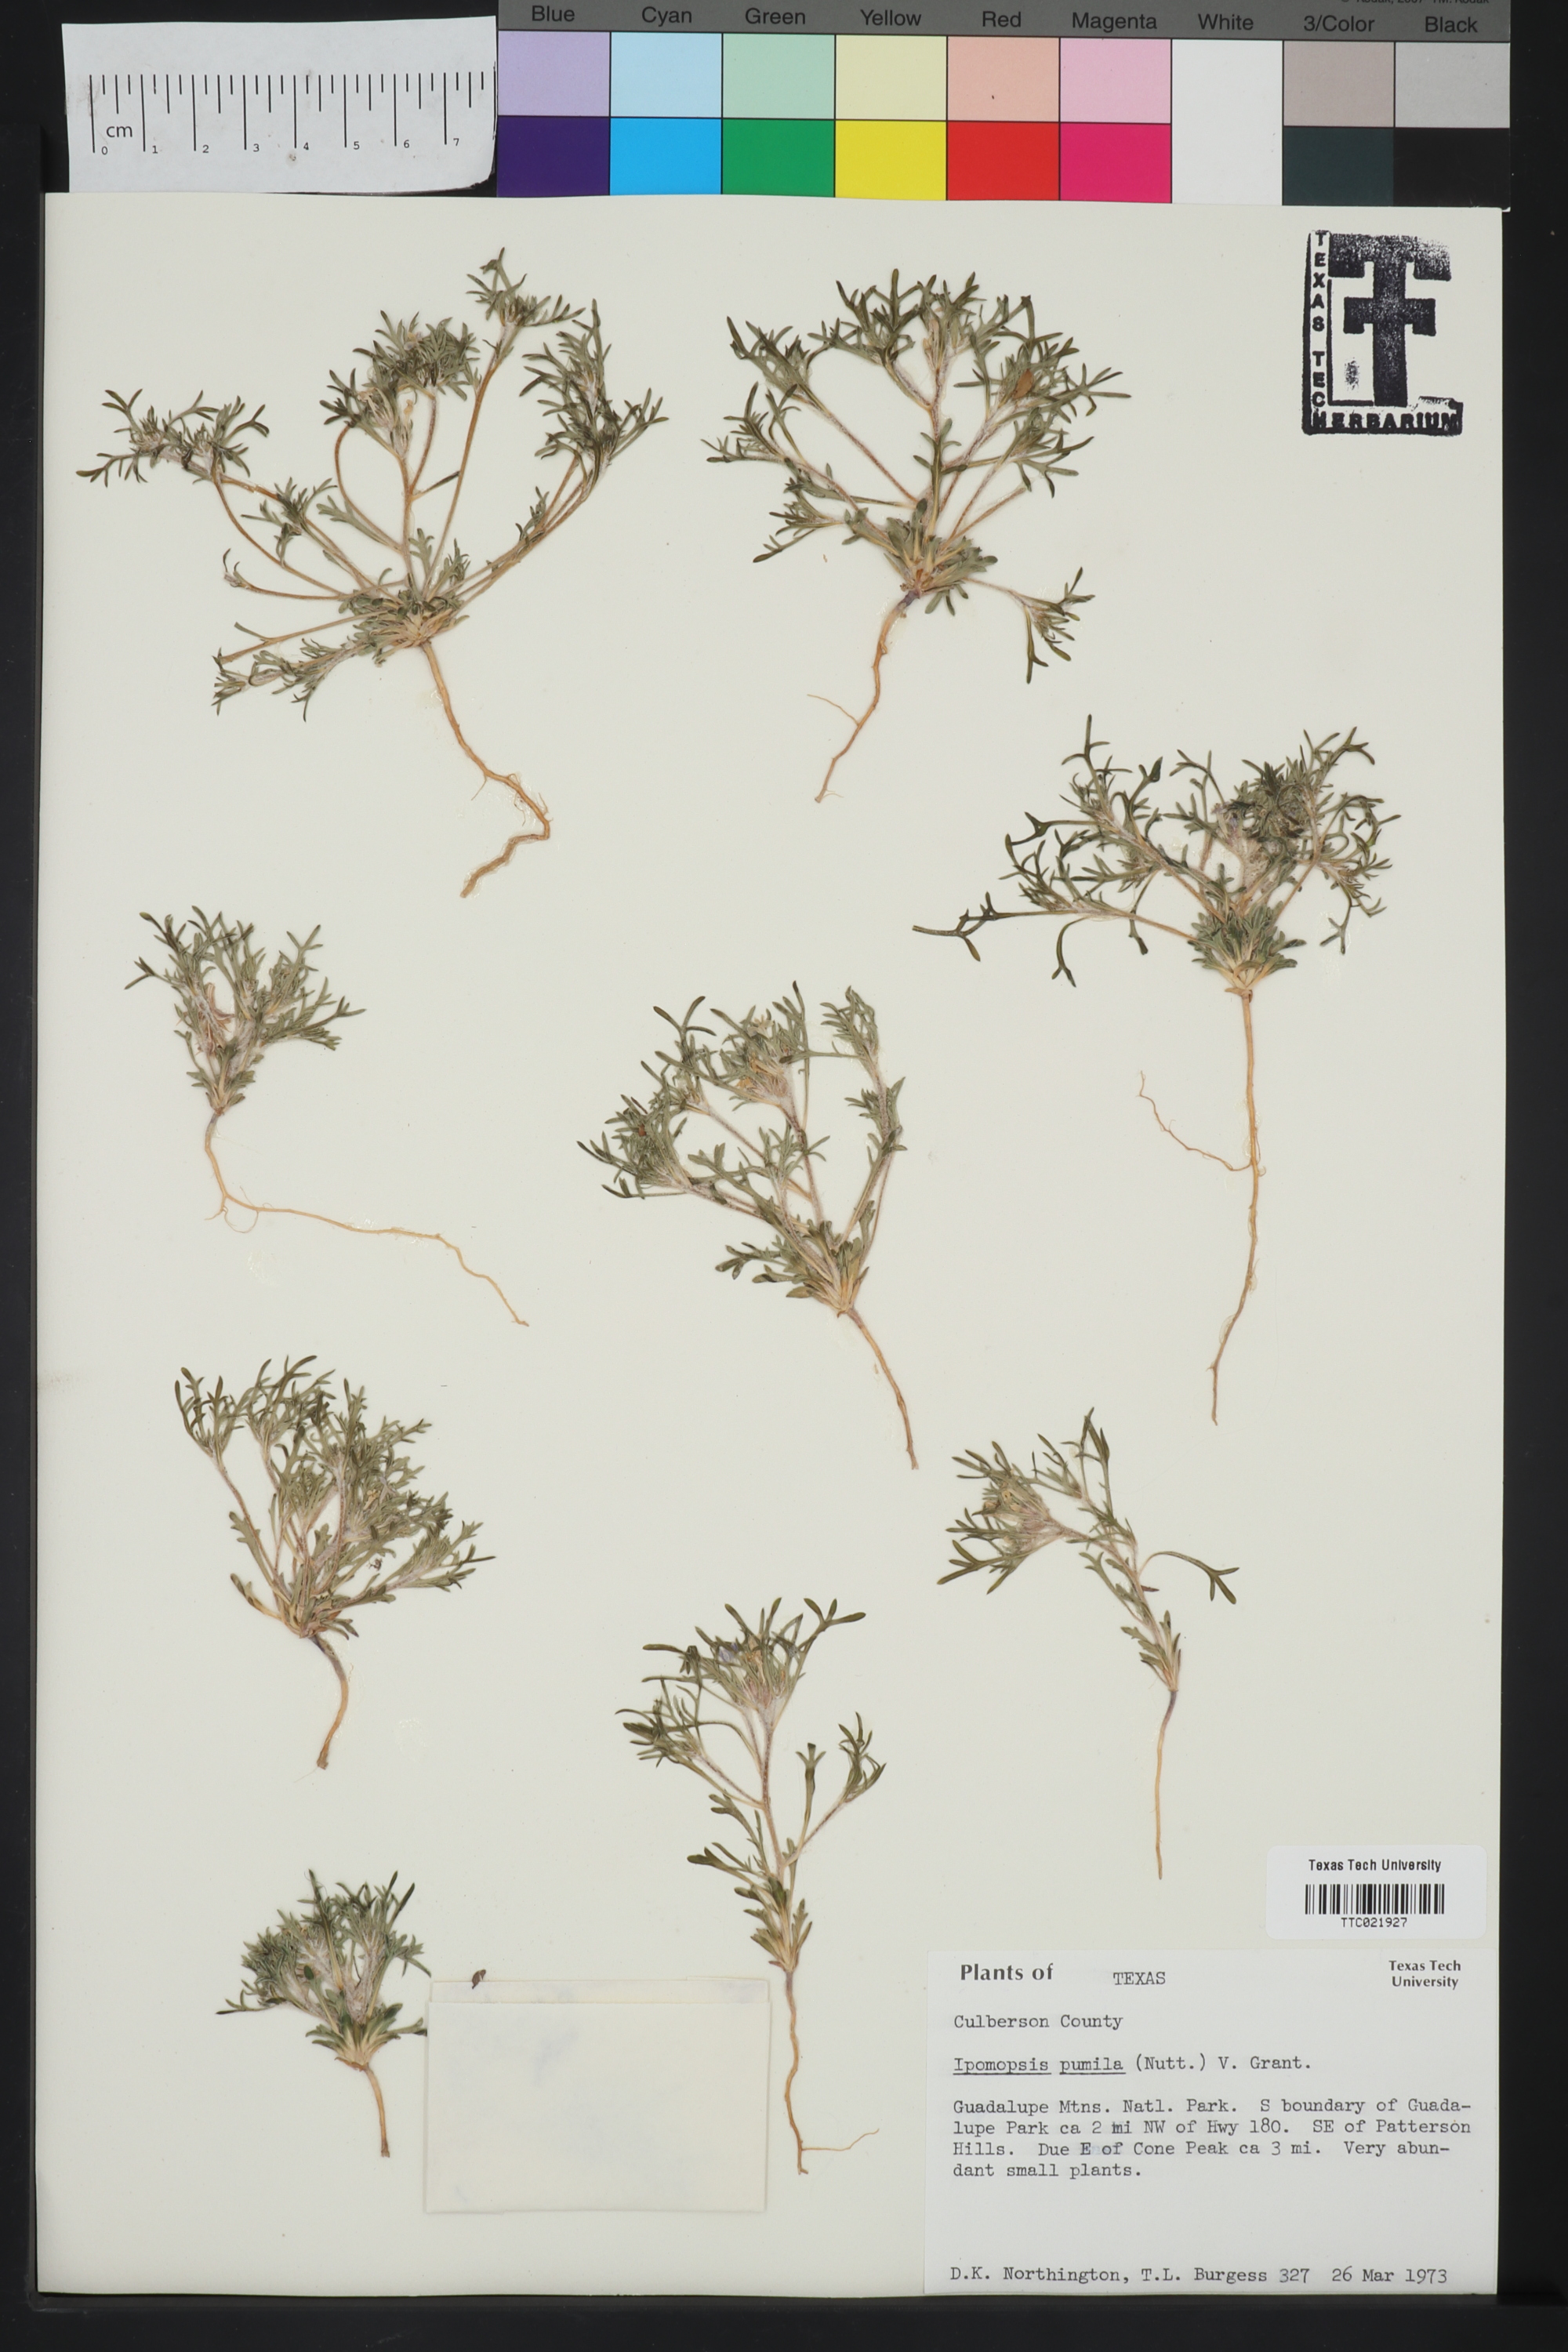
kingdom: Plantae
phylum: Tracheophyta
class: Magnoliopsida
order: Ericales
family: Polemoniaceae
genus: Ipomopsis
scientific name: Ipomopsis pumila
